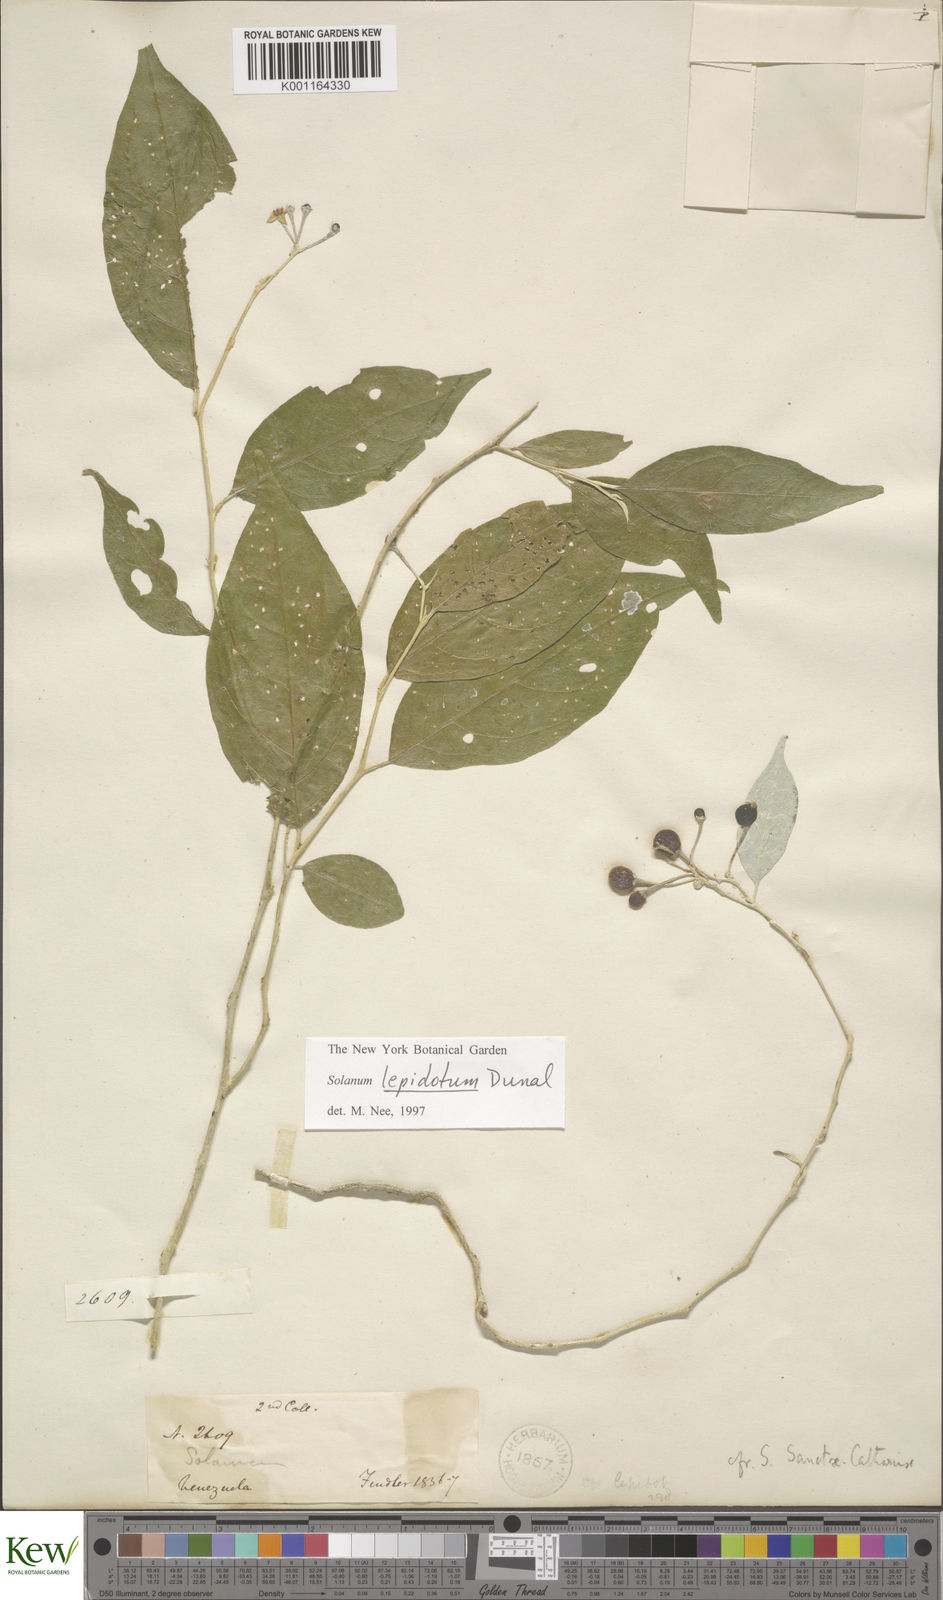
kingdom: Plantae
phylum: Tracheophyta
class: Magnoliopsida
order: Solanales
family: Solanaceae
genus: Solanum
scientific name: Solanum lepidotum
